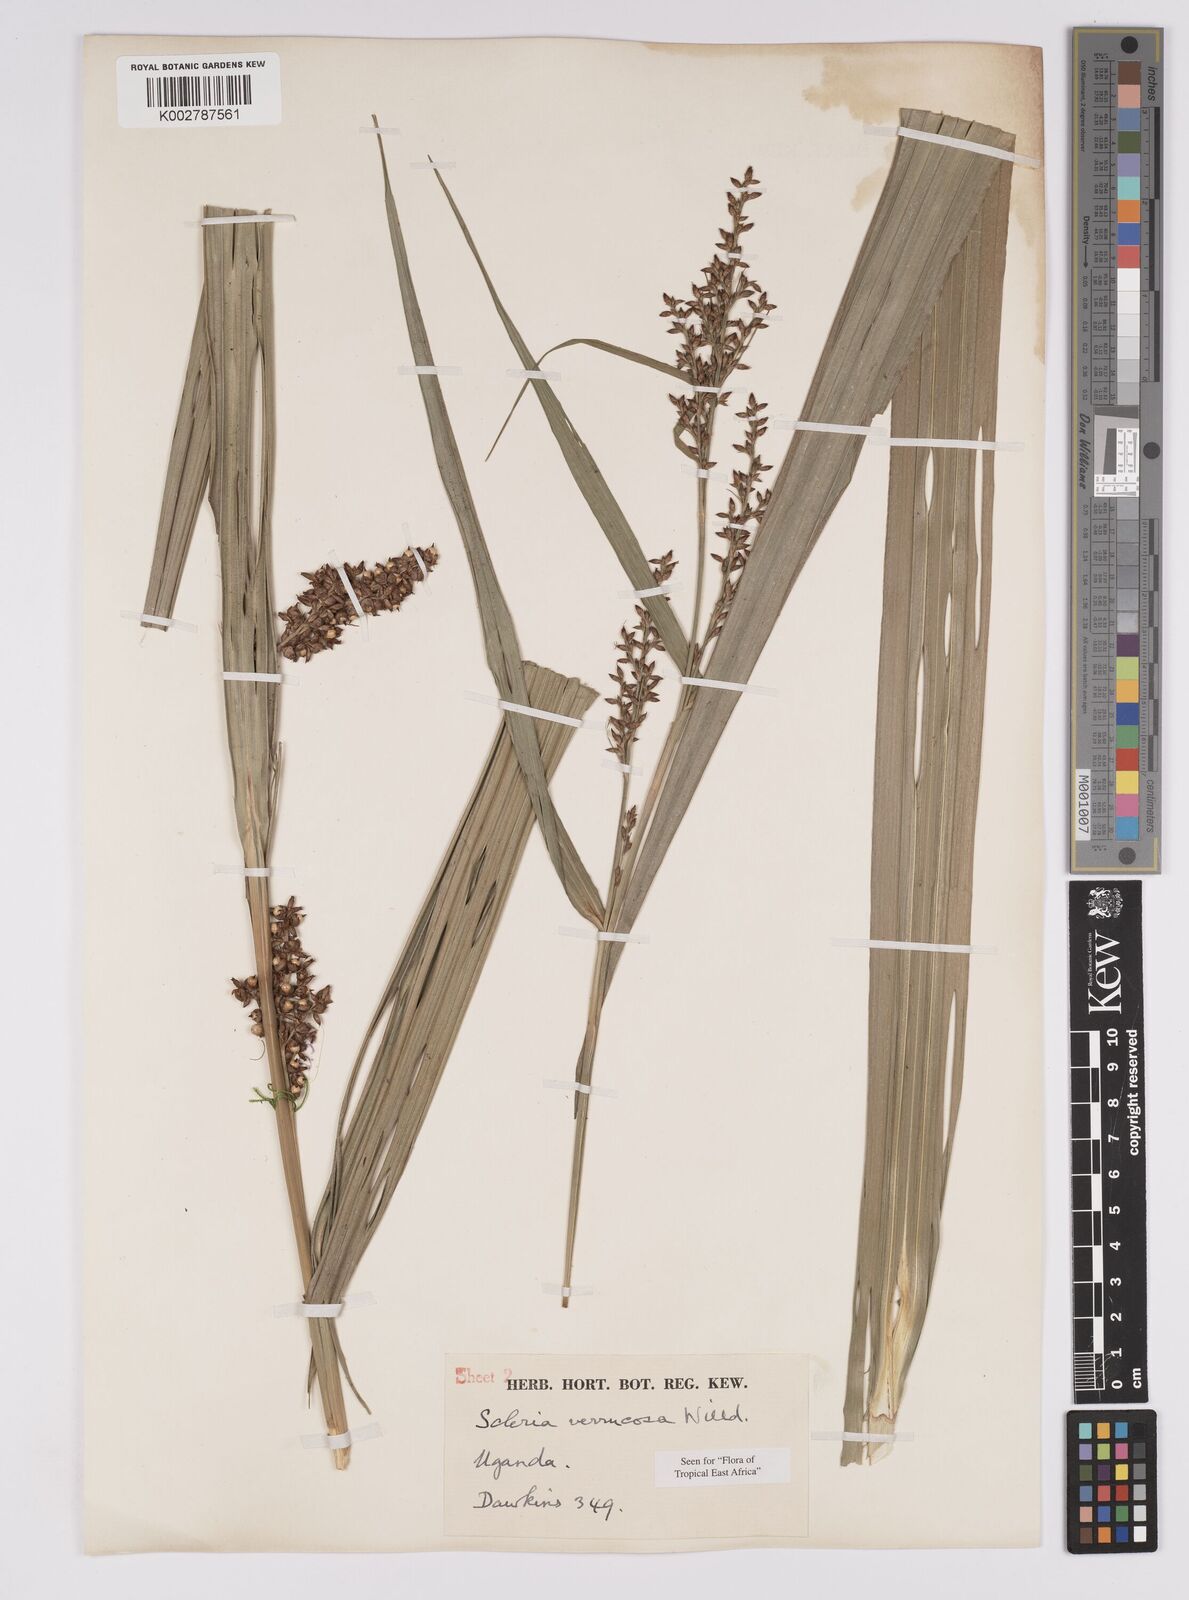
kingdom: Plantae
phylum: Tracheophyta
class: Liliopsida
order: Poales
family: Cyperaceae
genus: Scleria
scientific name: Scleria verrucosa
